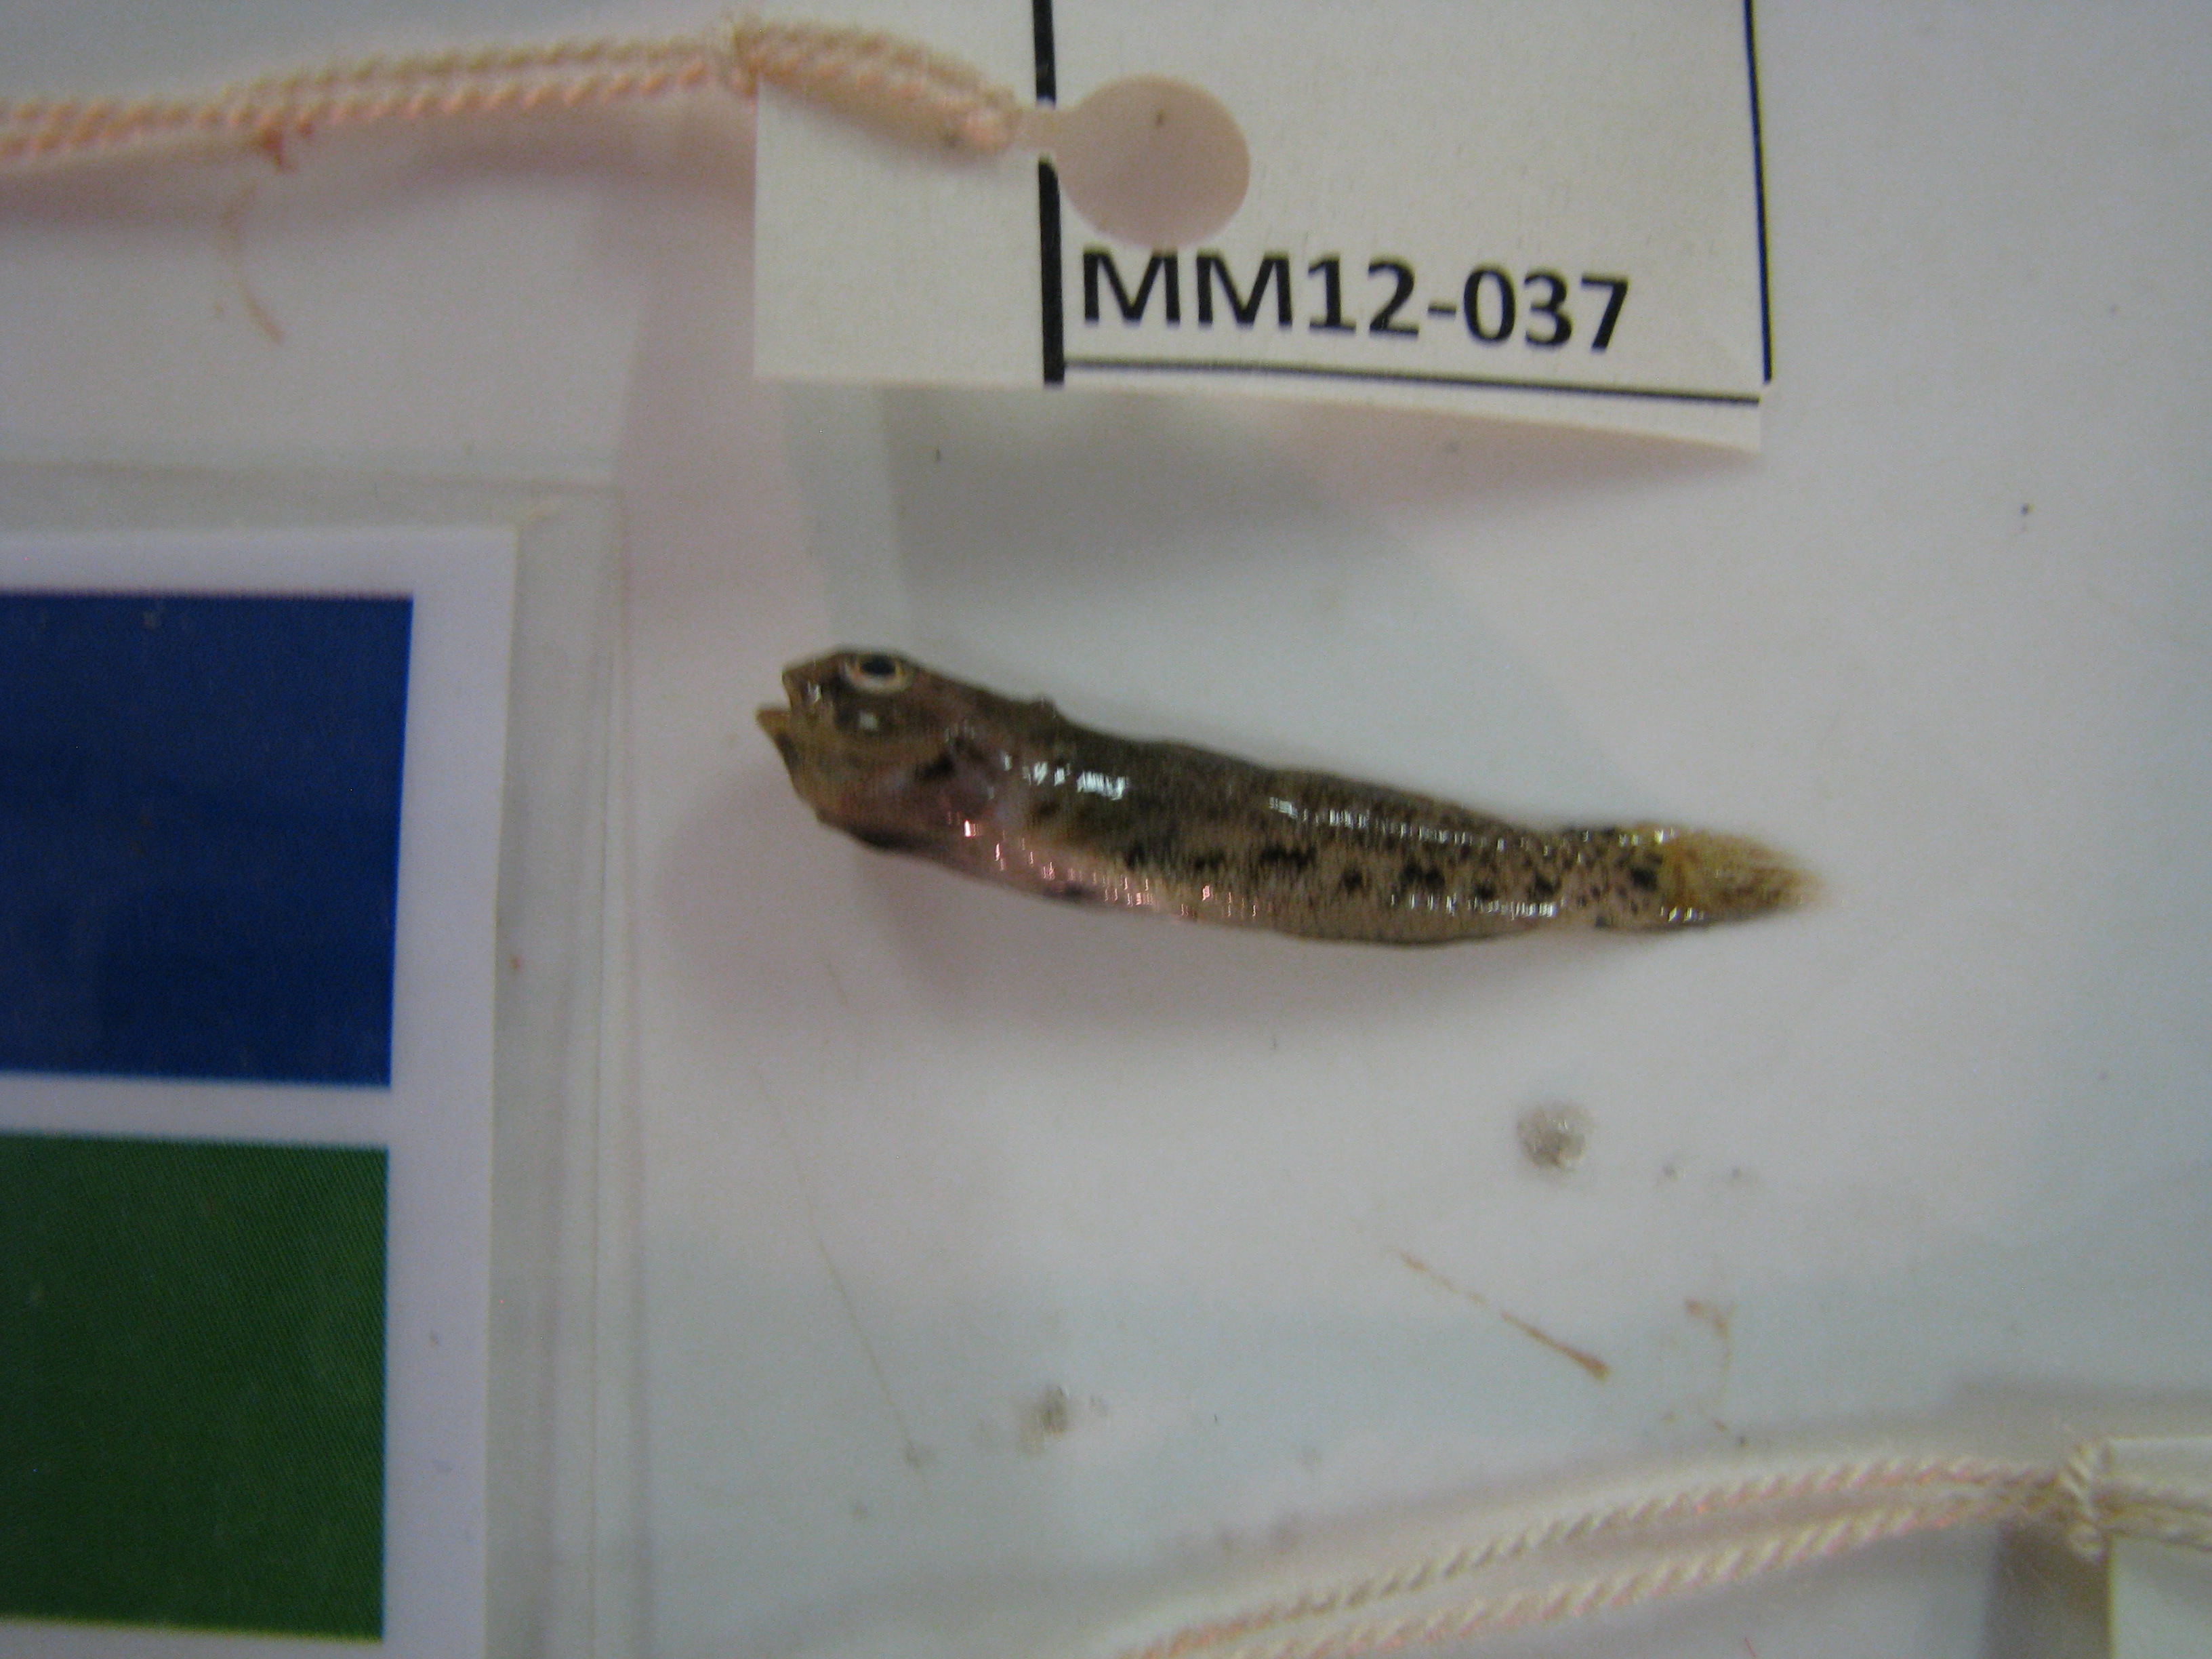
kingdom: Animalia
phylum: Chordata
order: Perciformes
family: Gobiidae
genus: Caffrogobius
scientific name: Caffrogobius saldanha
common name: Commafin goby
